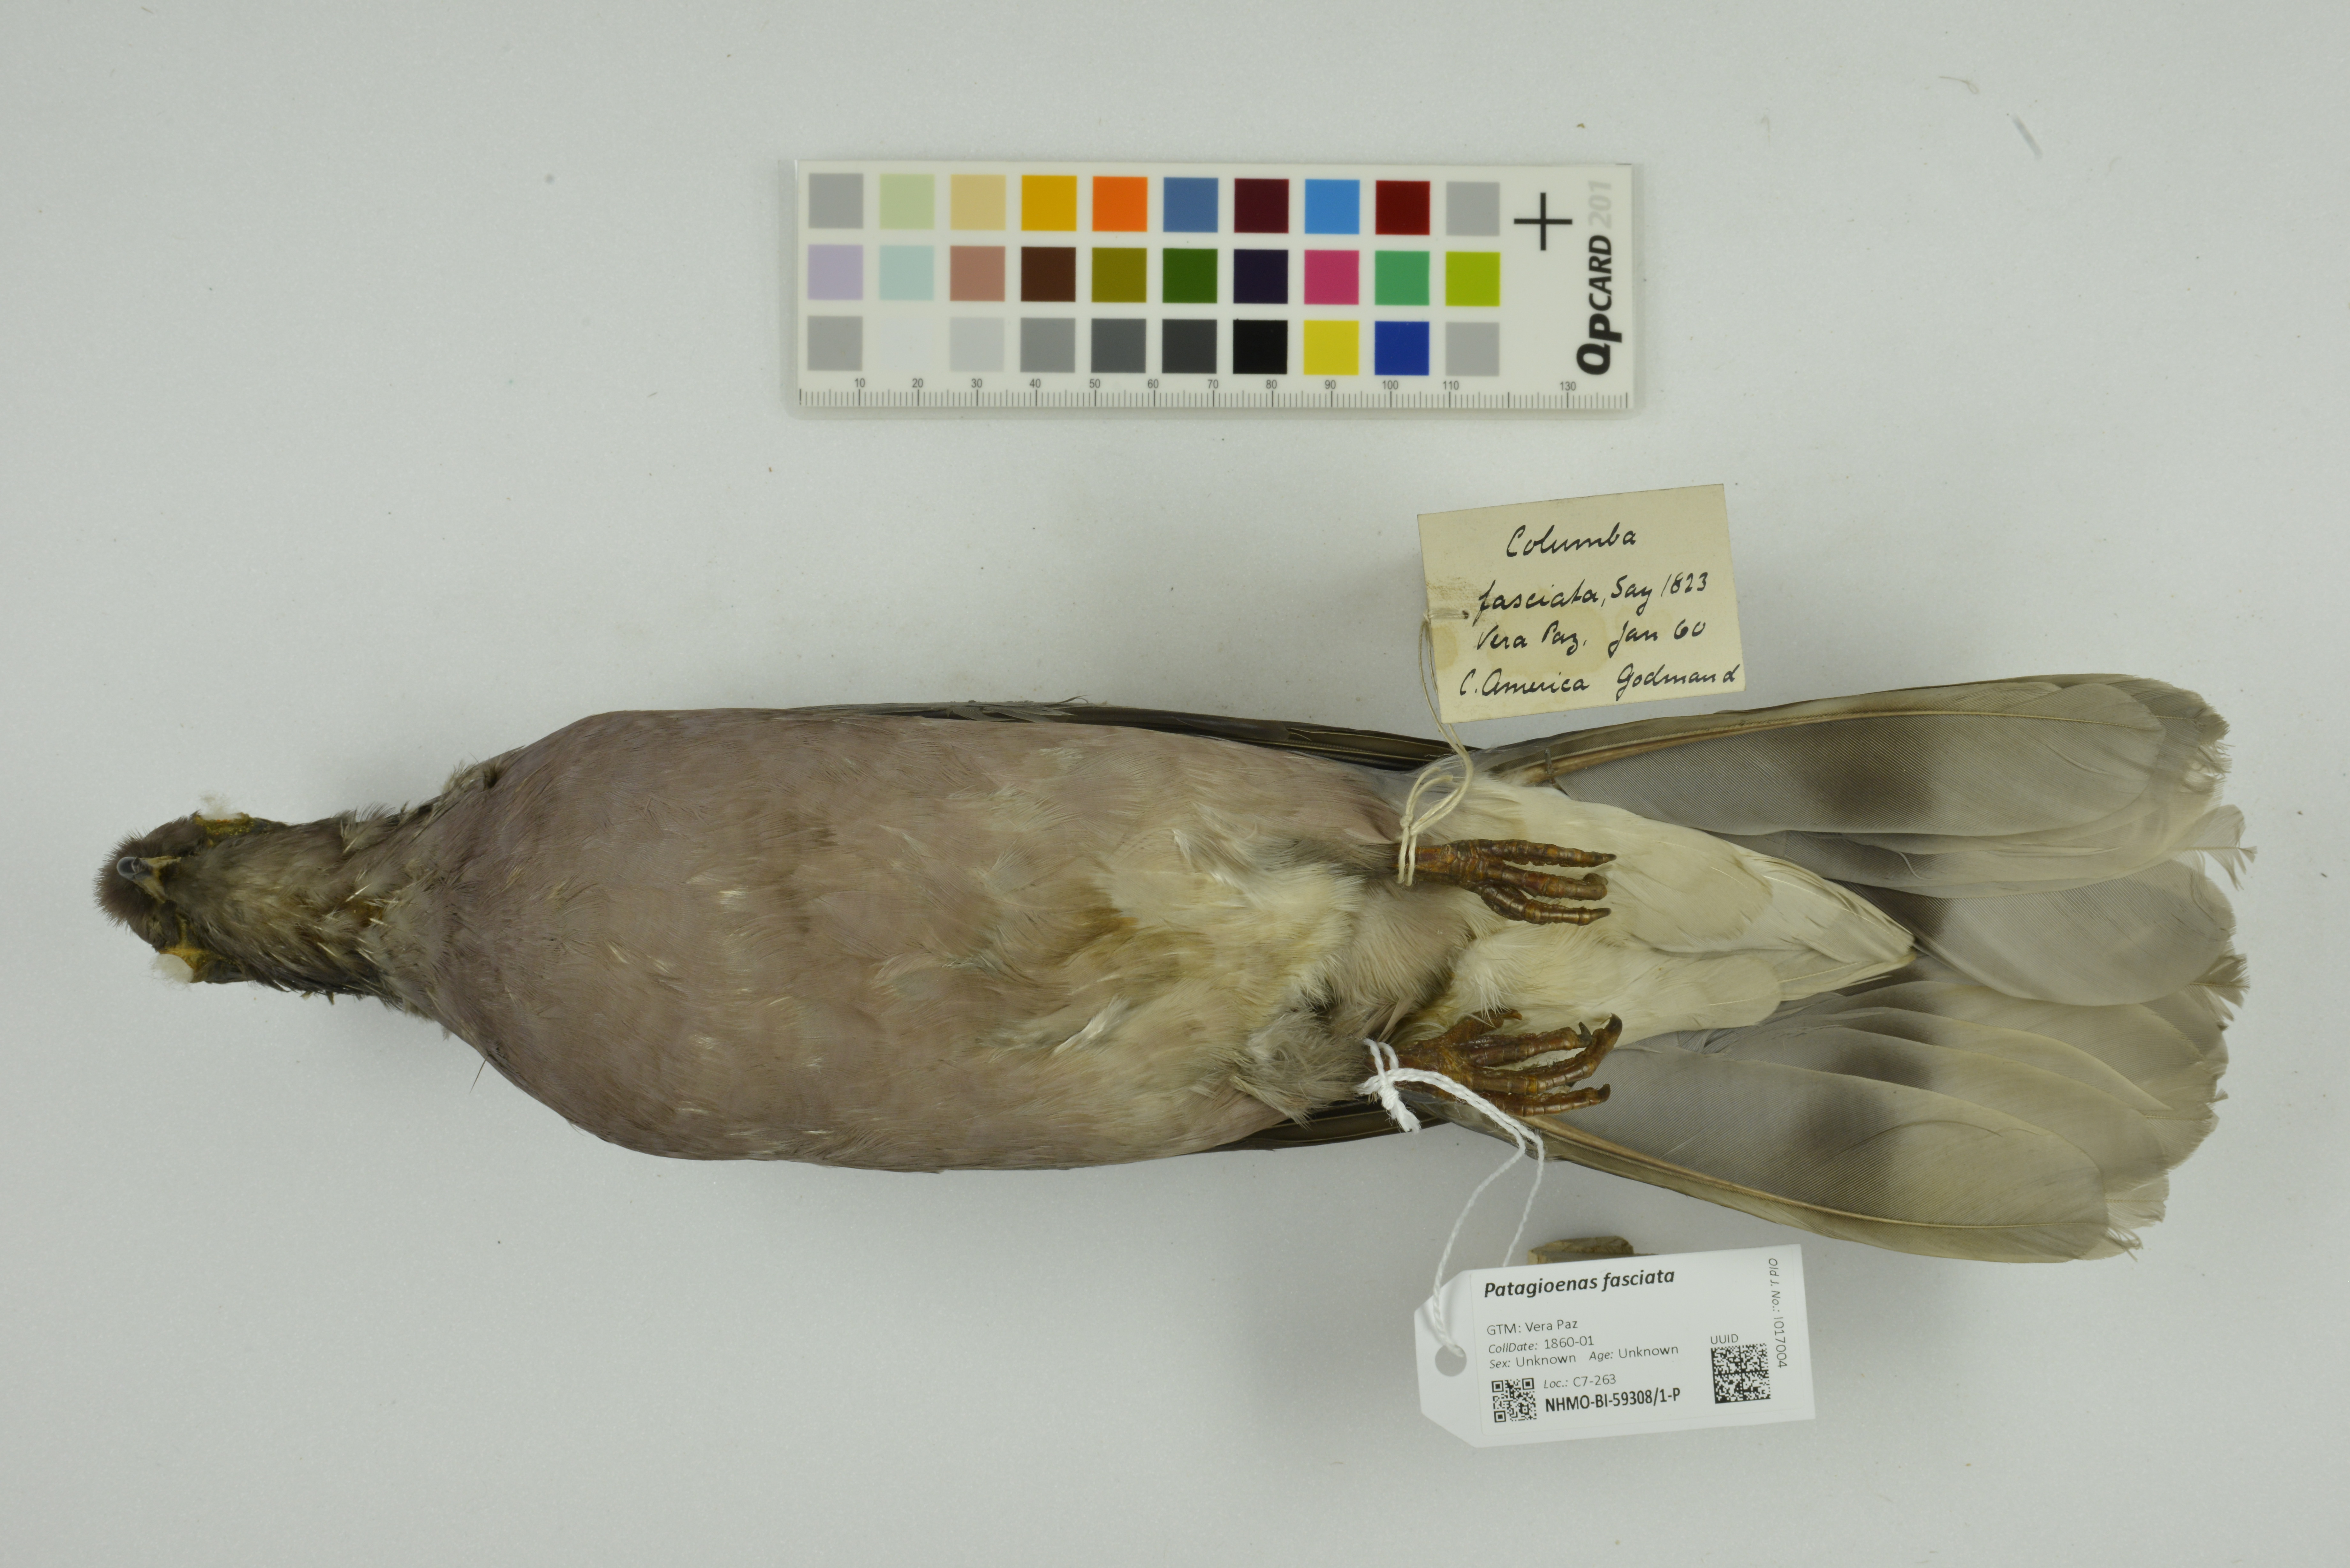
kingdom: Animalia
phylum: Chordata
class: Aves
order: Columbiformes
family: Columbidae
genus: Patagioenas
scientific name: Patagioenas fasciata
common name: Band-tailed pigeon
